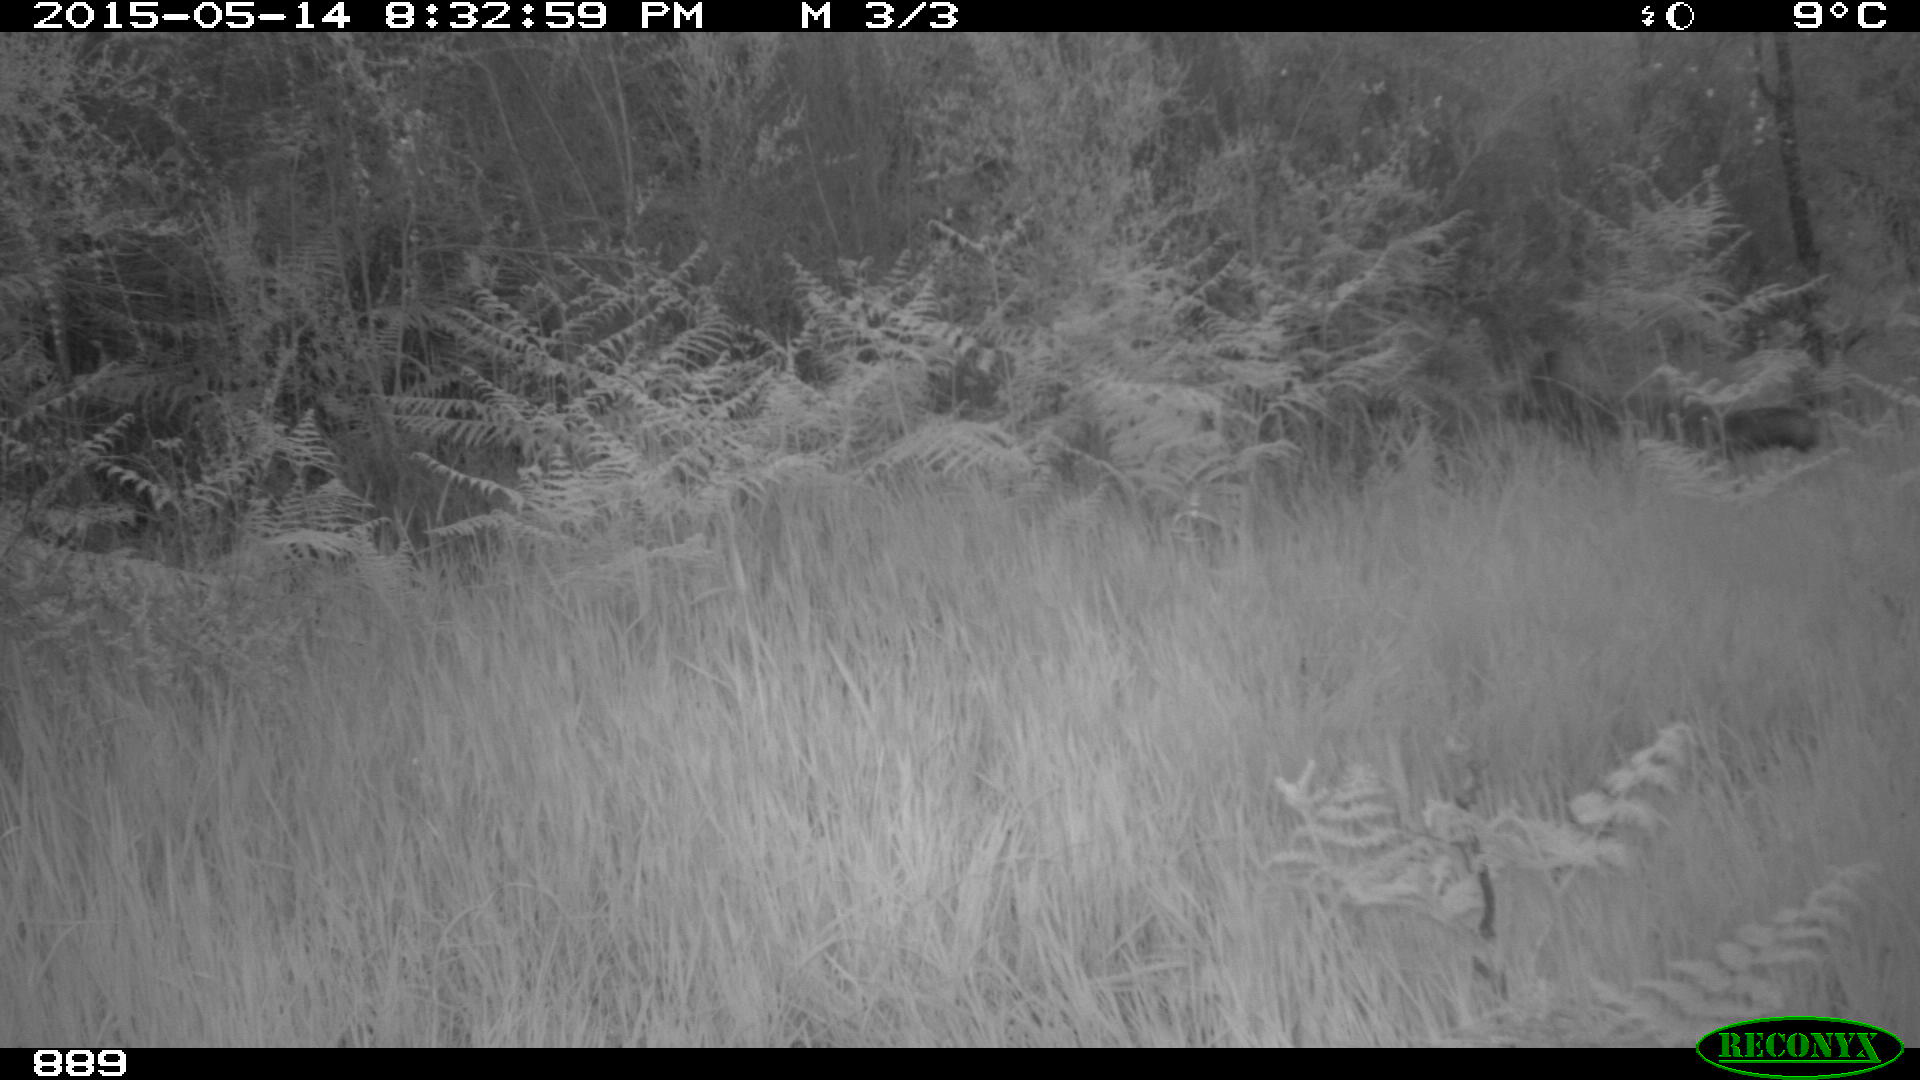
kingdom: Animalia
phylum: Chordata
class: Mammalia
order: Carnivora
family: Canidae
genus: Vulpes
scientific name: Vulpes vulpes
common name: Red fox
